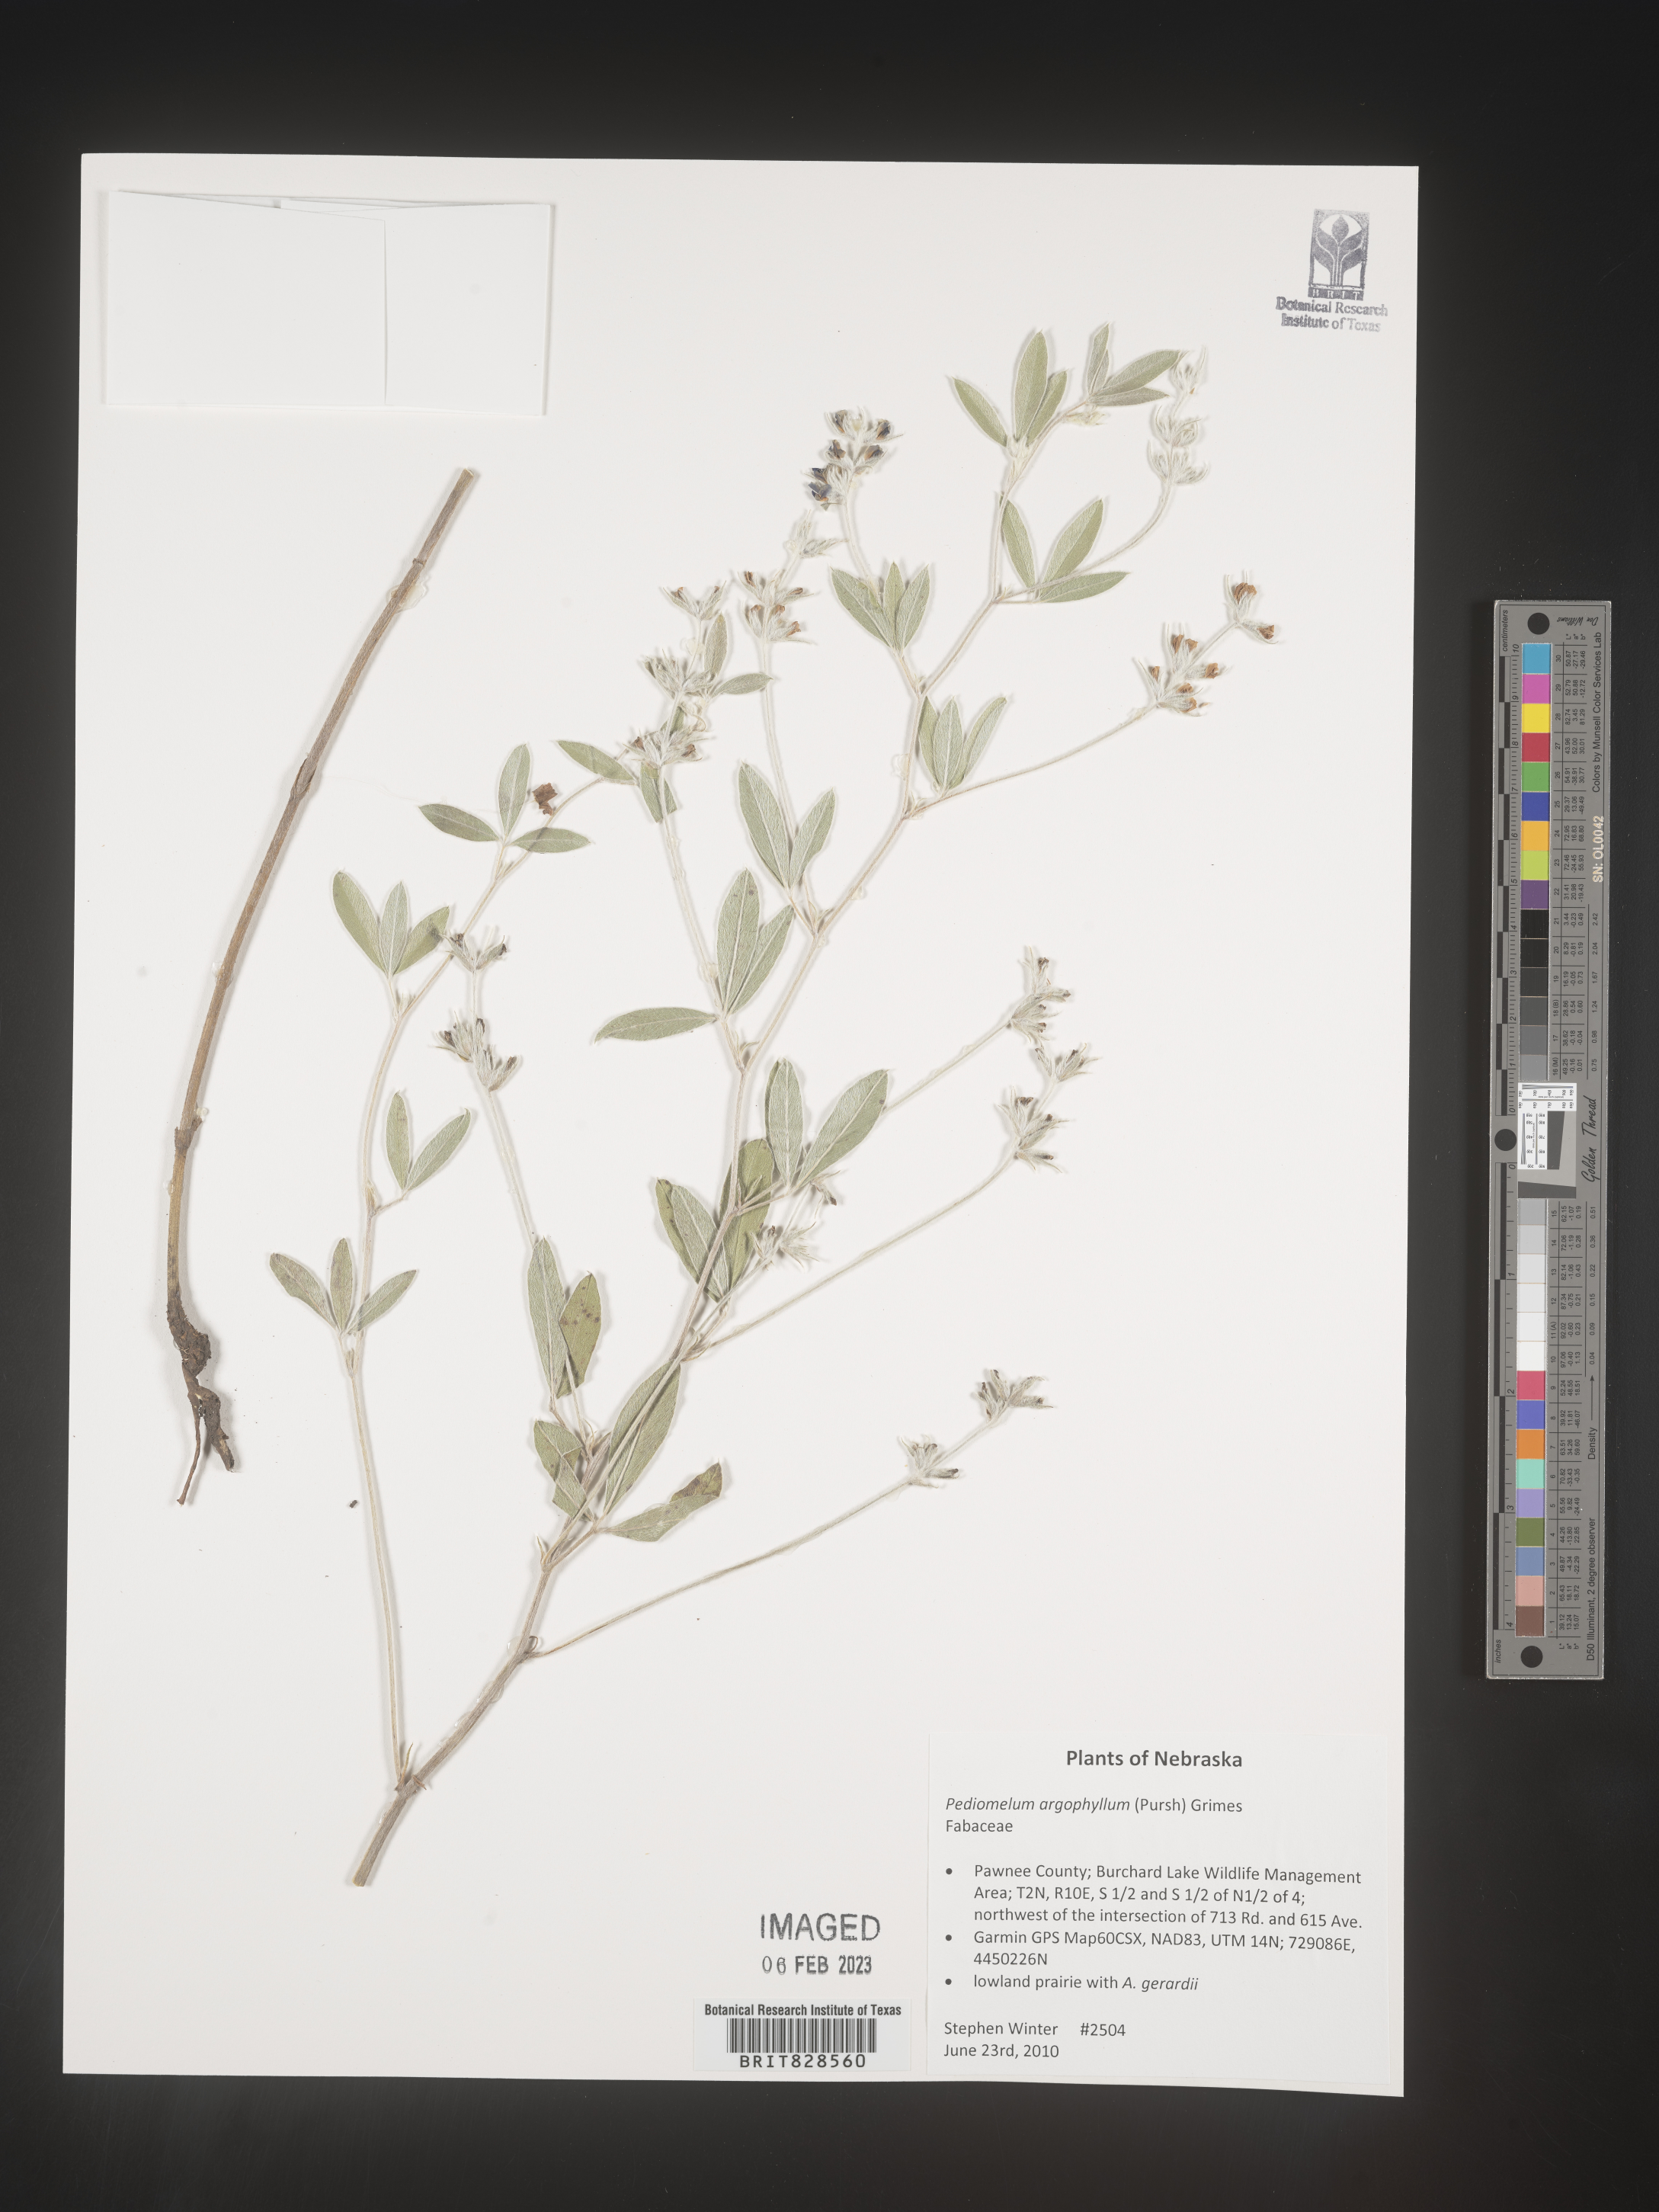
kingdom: Plantae
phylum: Tracheophyta
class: Magnoliopsida
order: Fabales
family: Fabaceae
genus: Pediomelum
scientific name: Pediomelum
